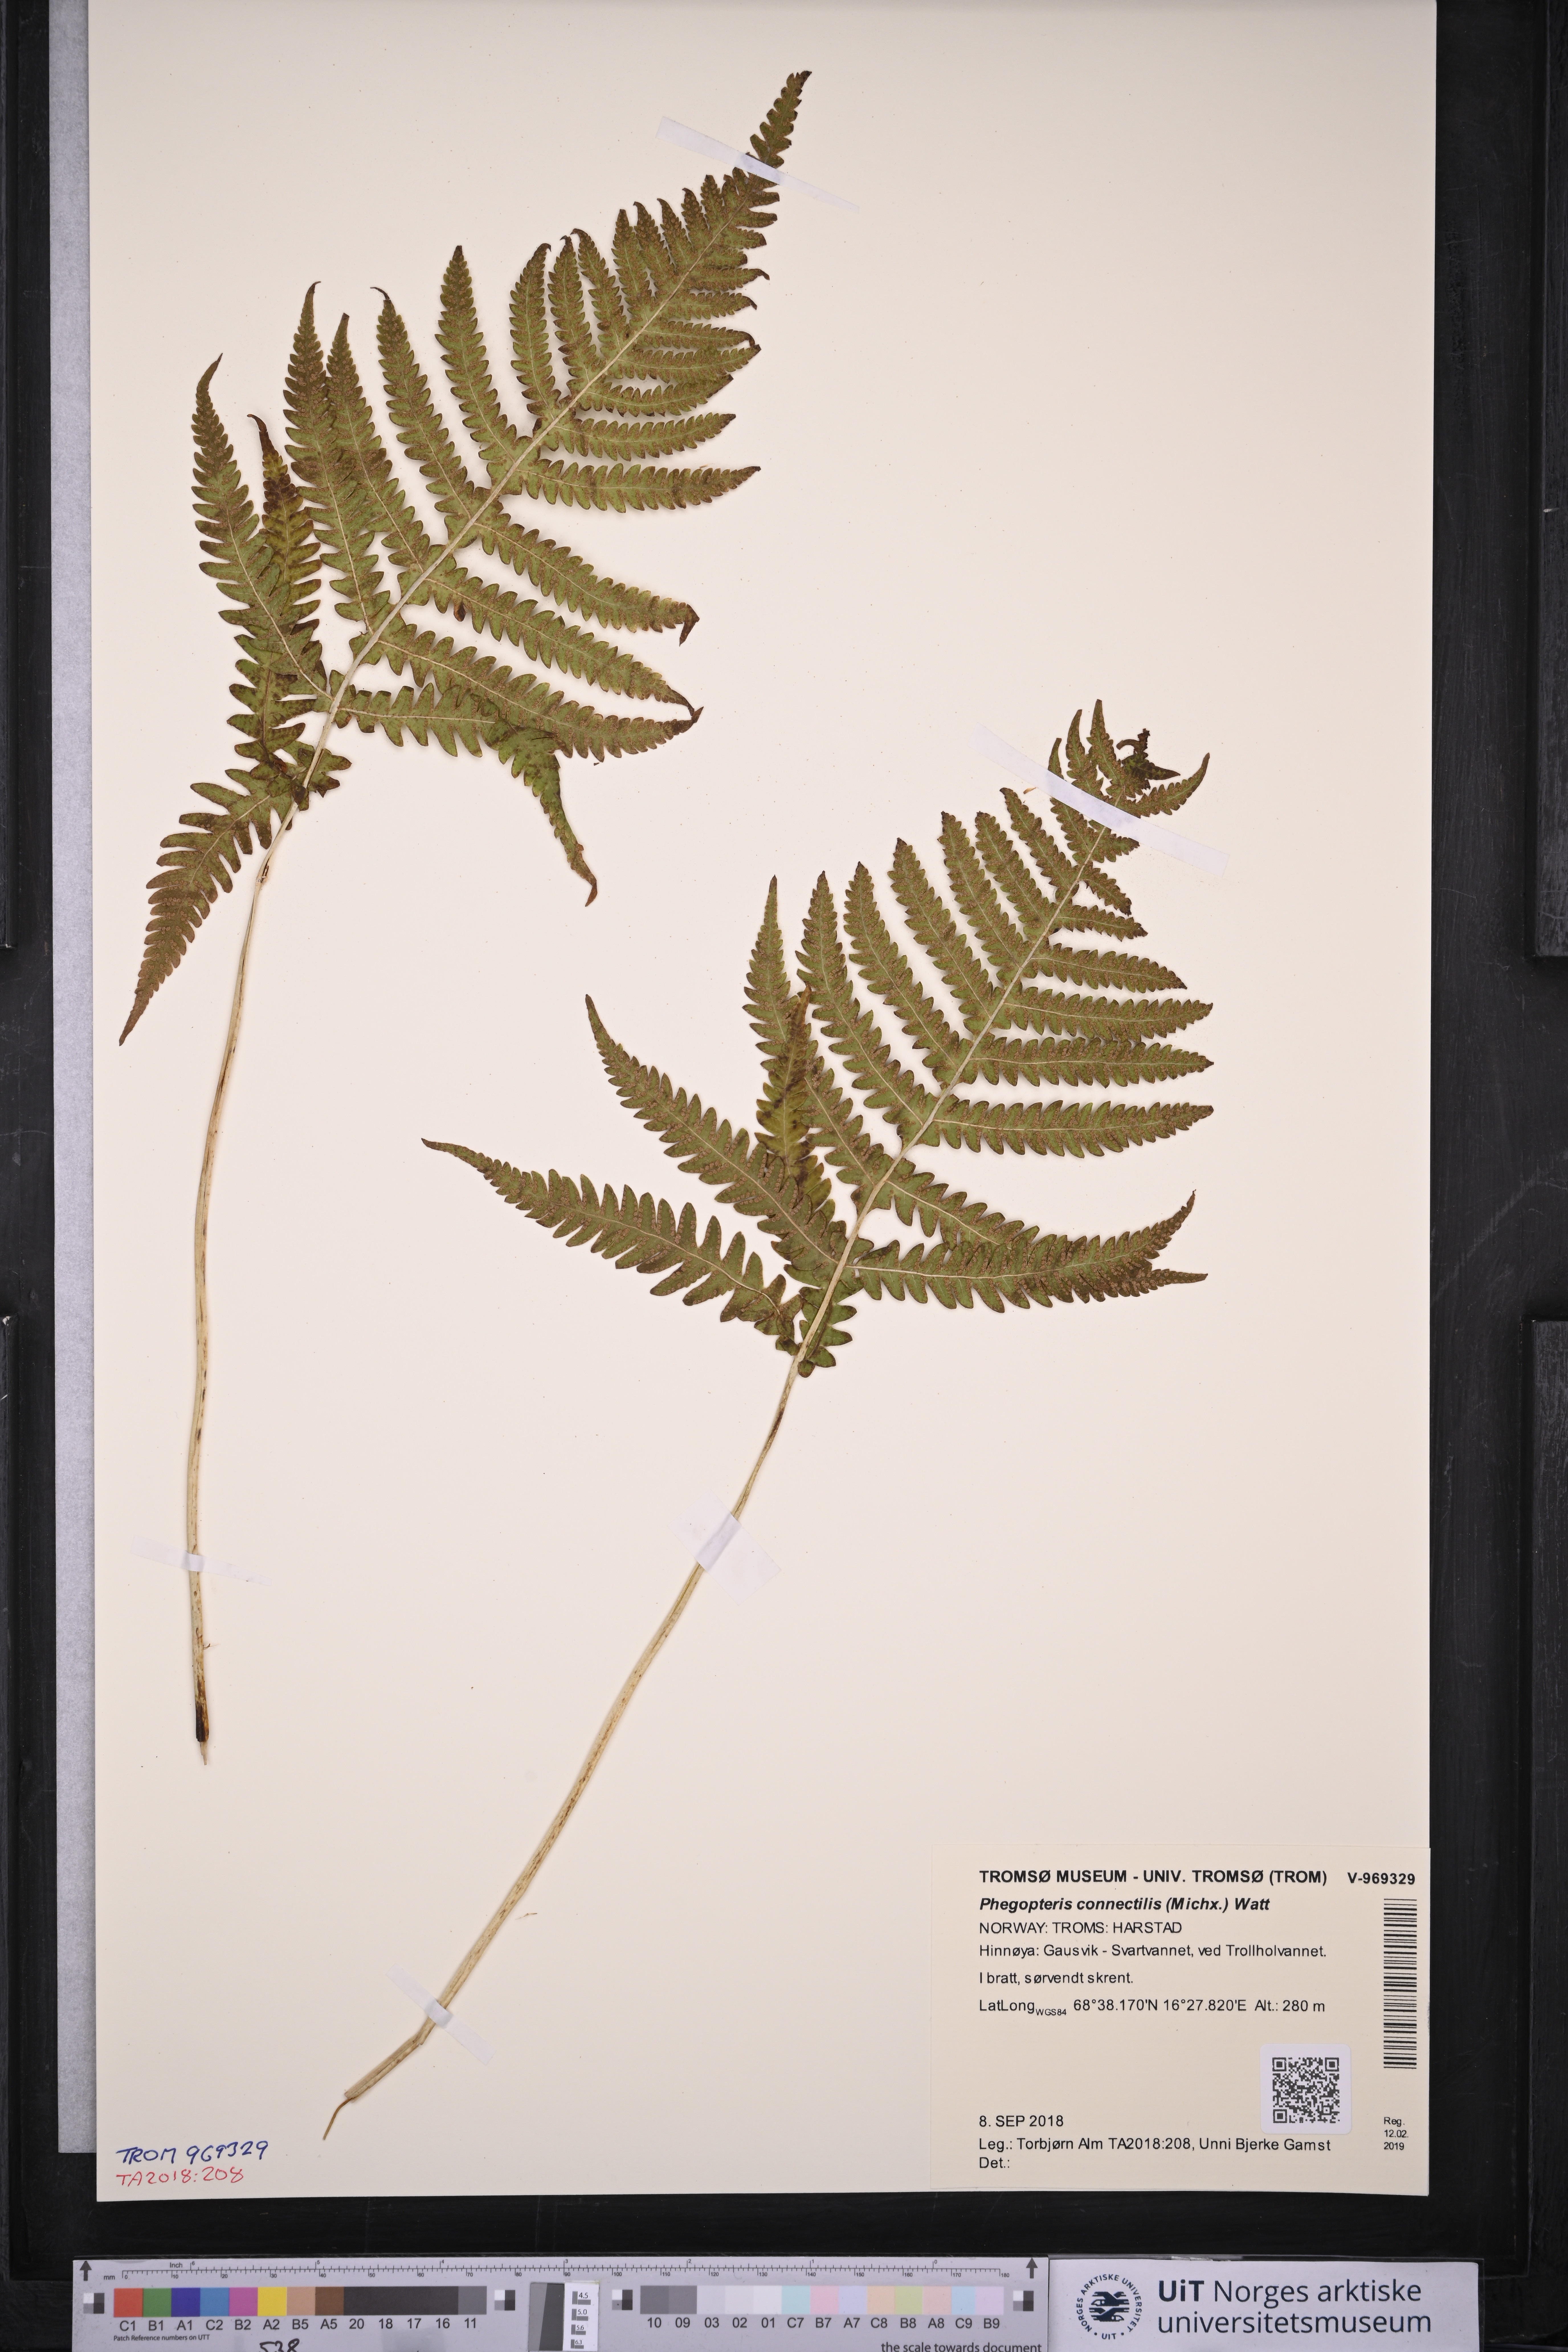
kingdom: Plantae
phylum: Tracheophyta
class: Polypodiopsida
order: Polypodiales
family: Thelypteridaceae
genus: Phegopteris
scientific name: Phegopteris connectilis
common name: Beech fern
